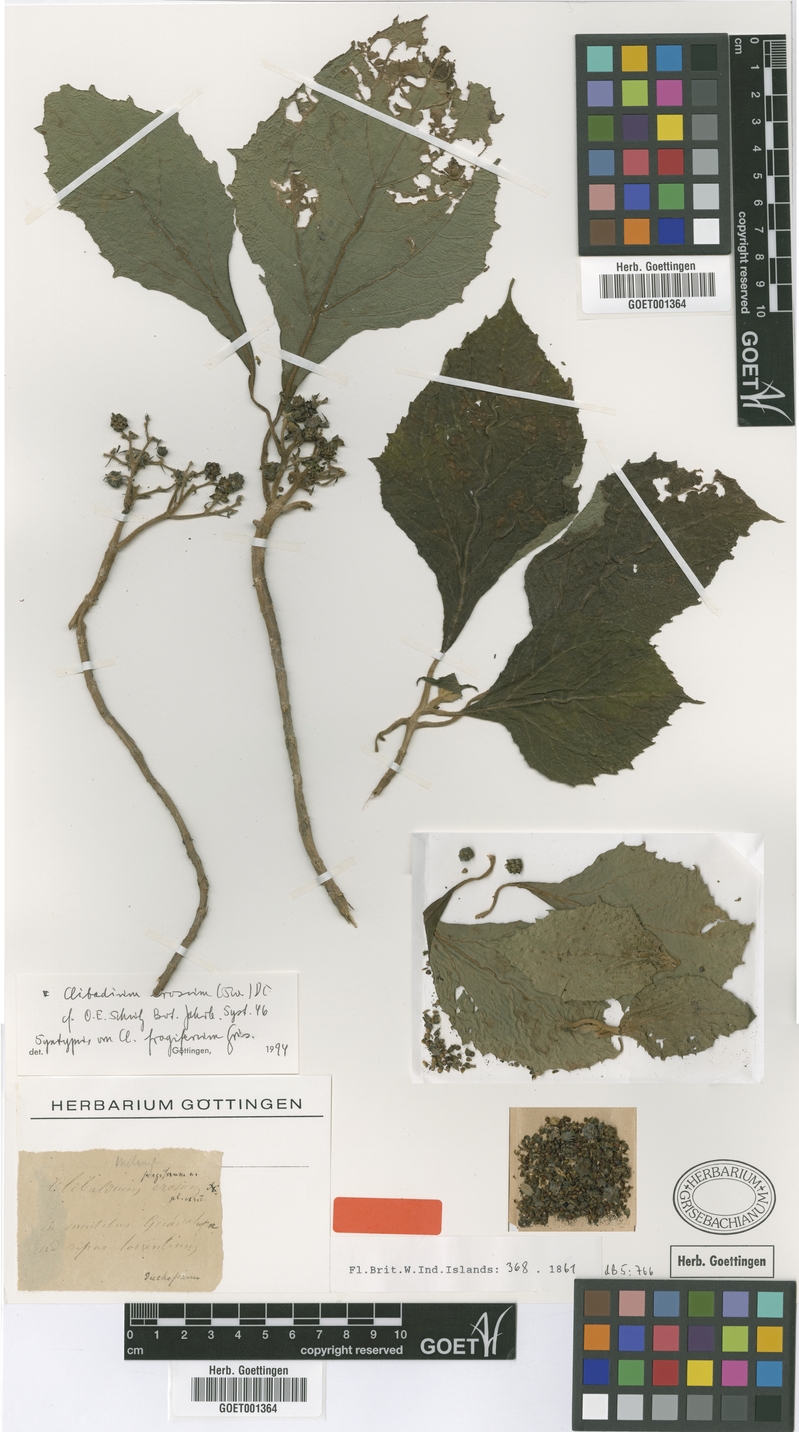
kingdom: Plantae
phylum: Tracheophyta
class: Magnoliopsida
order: Asterales
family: Asteraceae
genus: Clibadium
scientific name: Clibadium erosum
